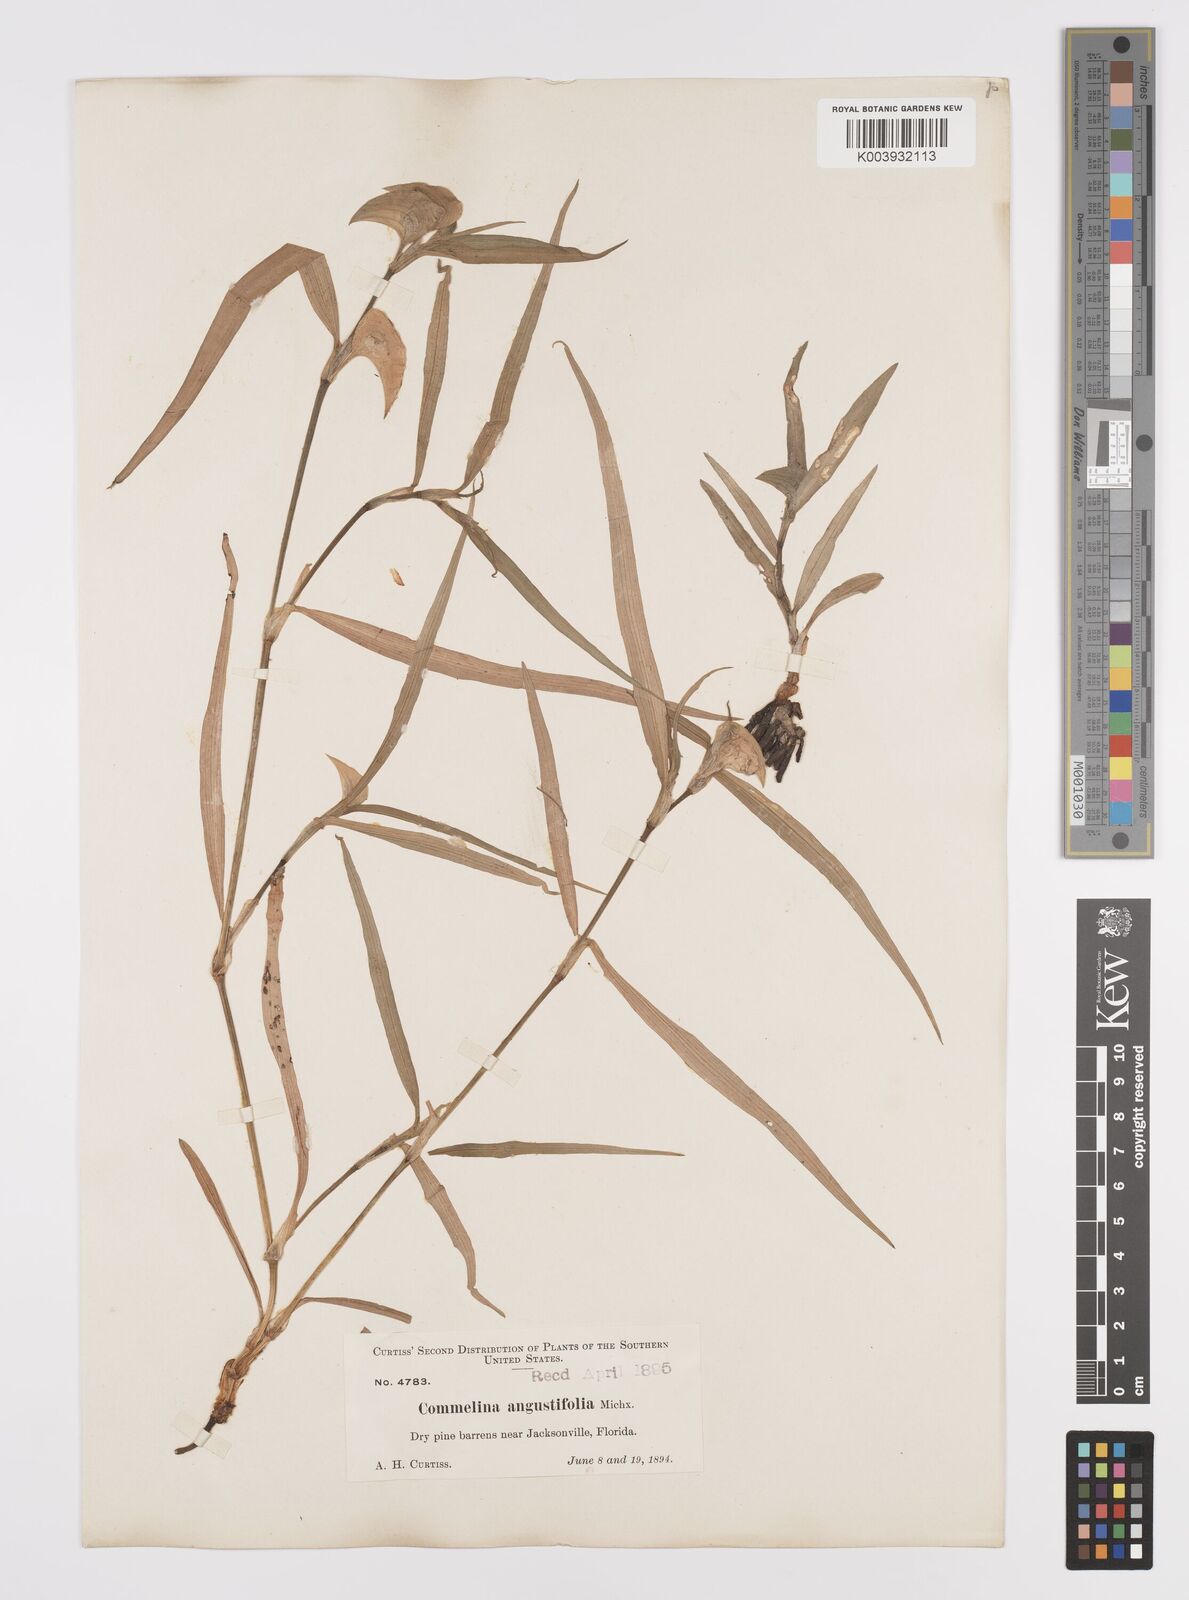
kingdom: Plantae
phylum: Tracheophyta
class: Liliopsida
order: Commelinales
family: Commelinaceae
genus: Commelina
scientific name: Commelina erecta
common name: Blousel blommetjie
